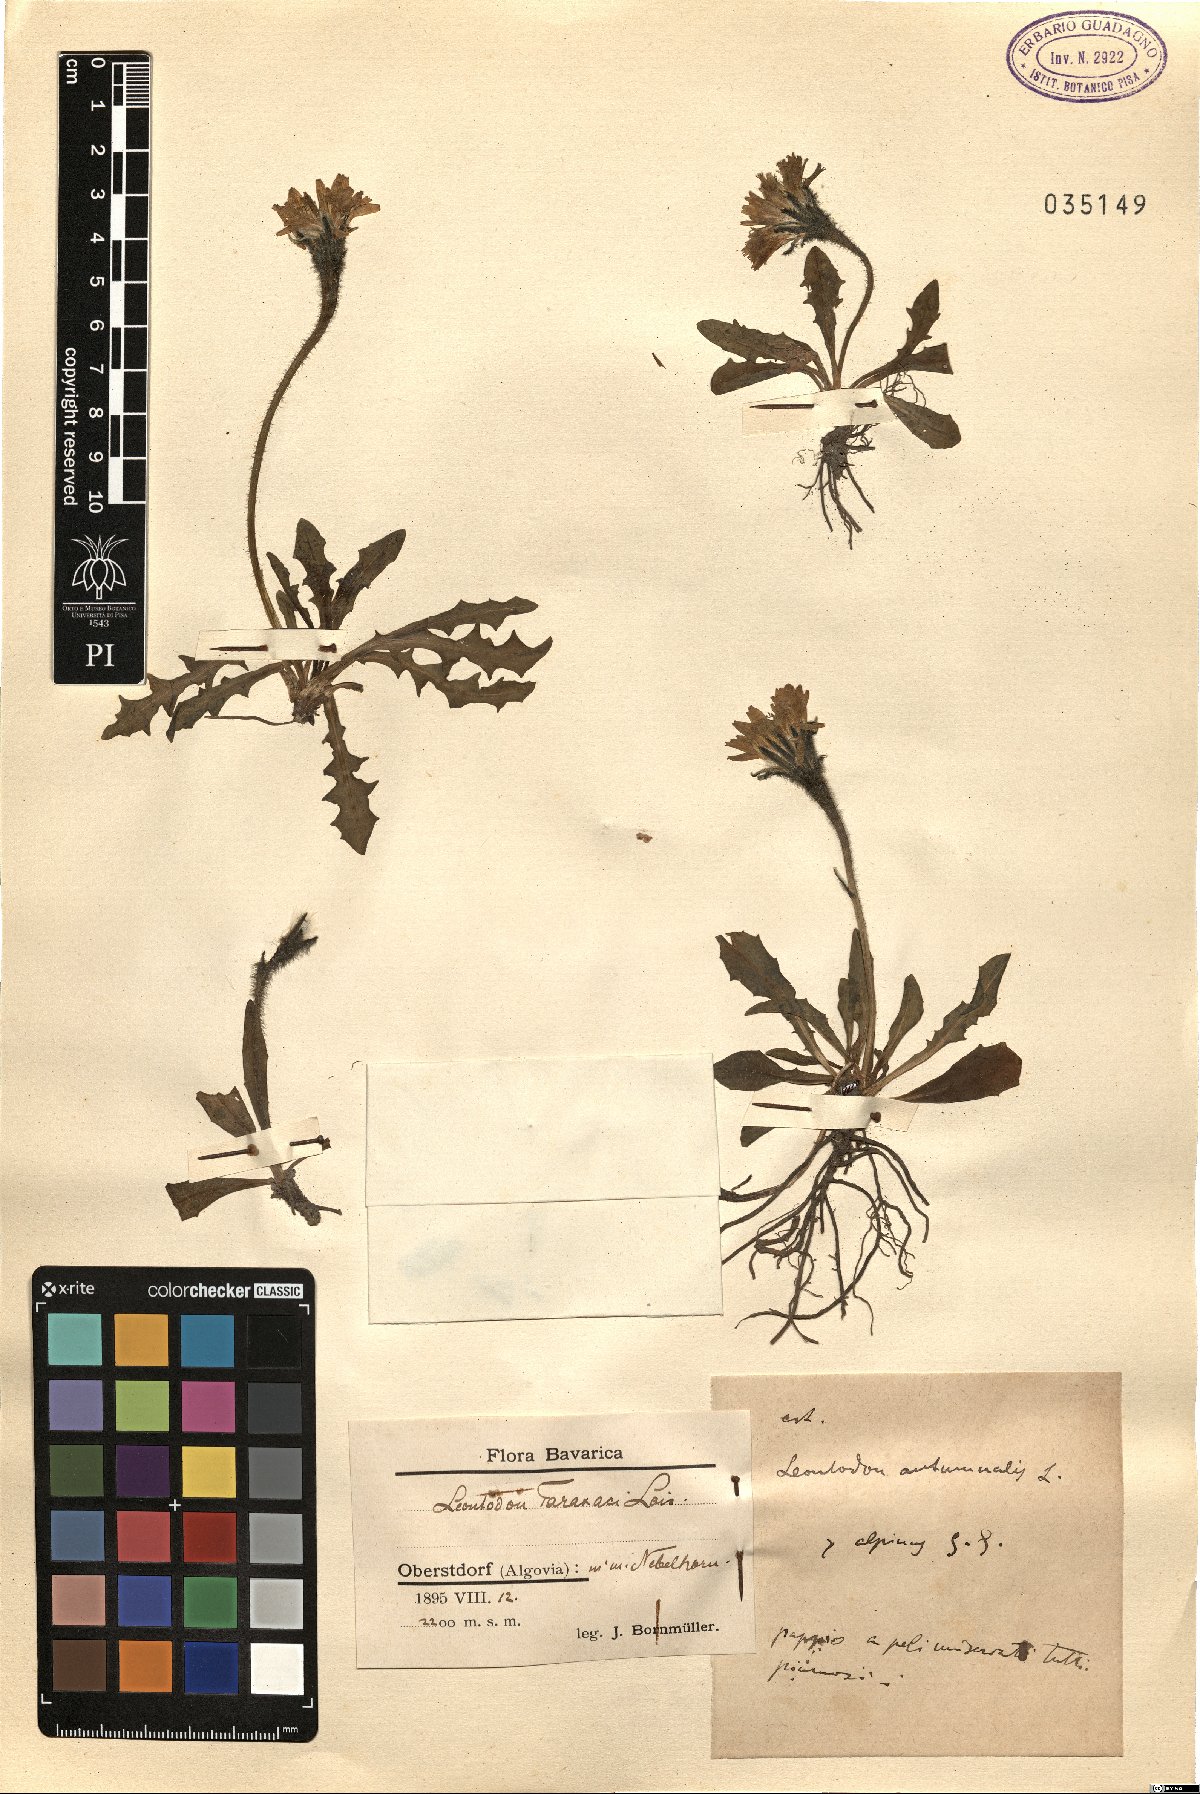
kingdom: Plantae
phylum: Tracheophyta
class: Magnoliopsida
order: Asterales
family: Asteraceae
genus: Scorzoneroides
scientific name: Scorzoneroides hispidula
